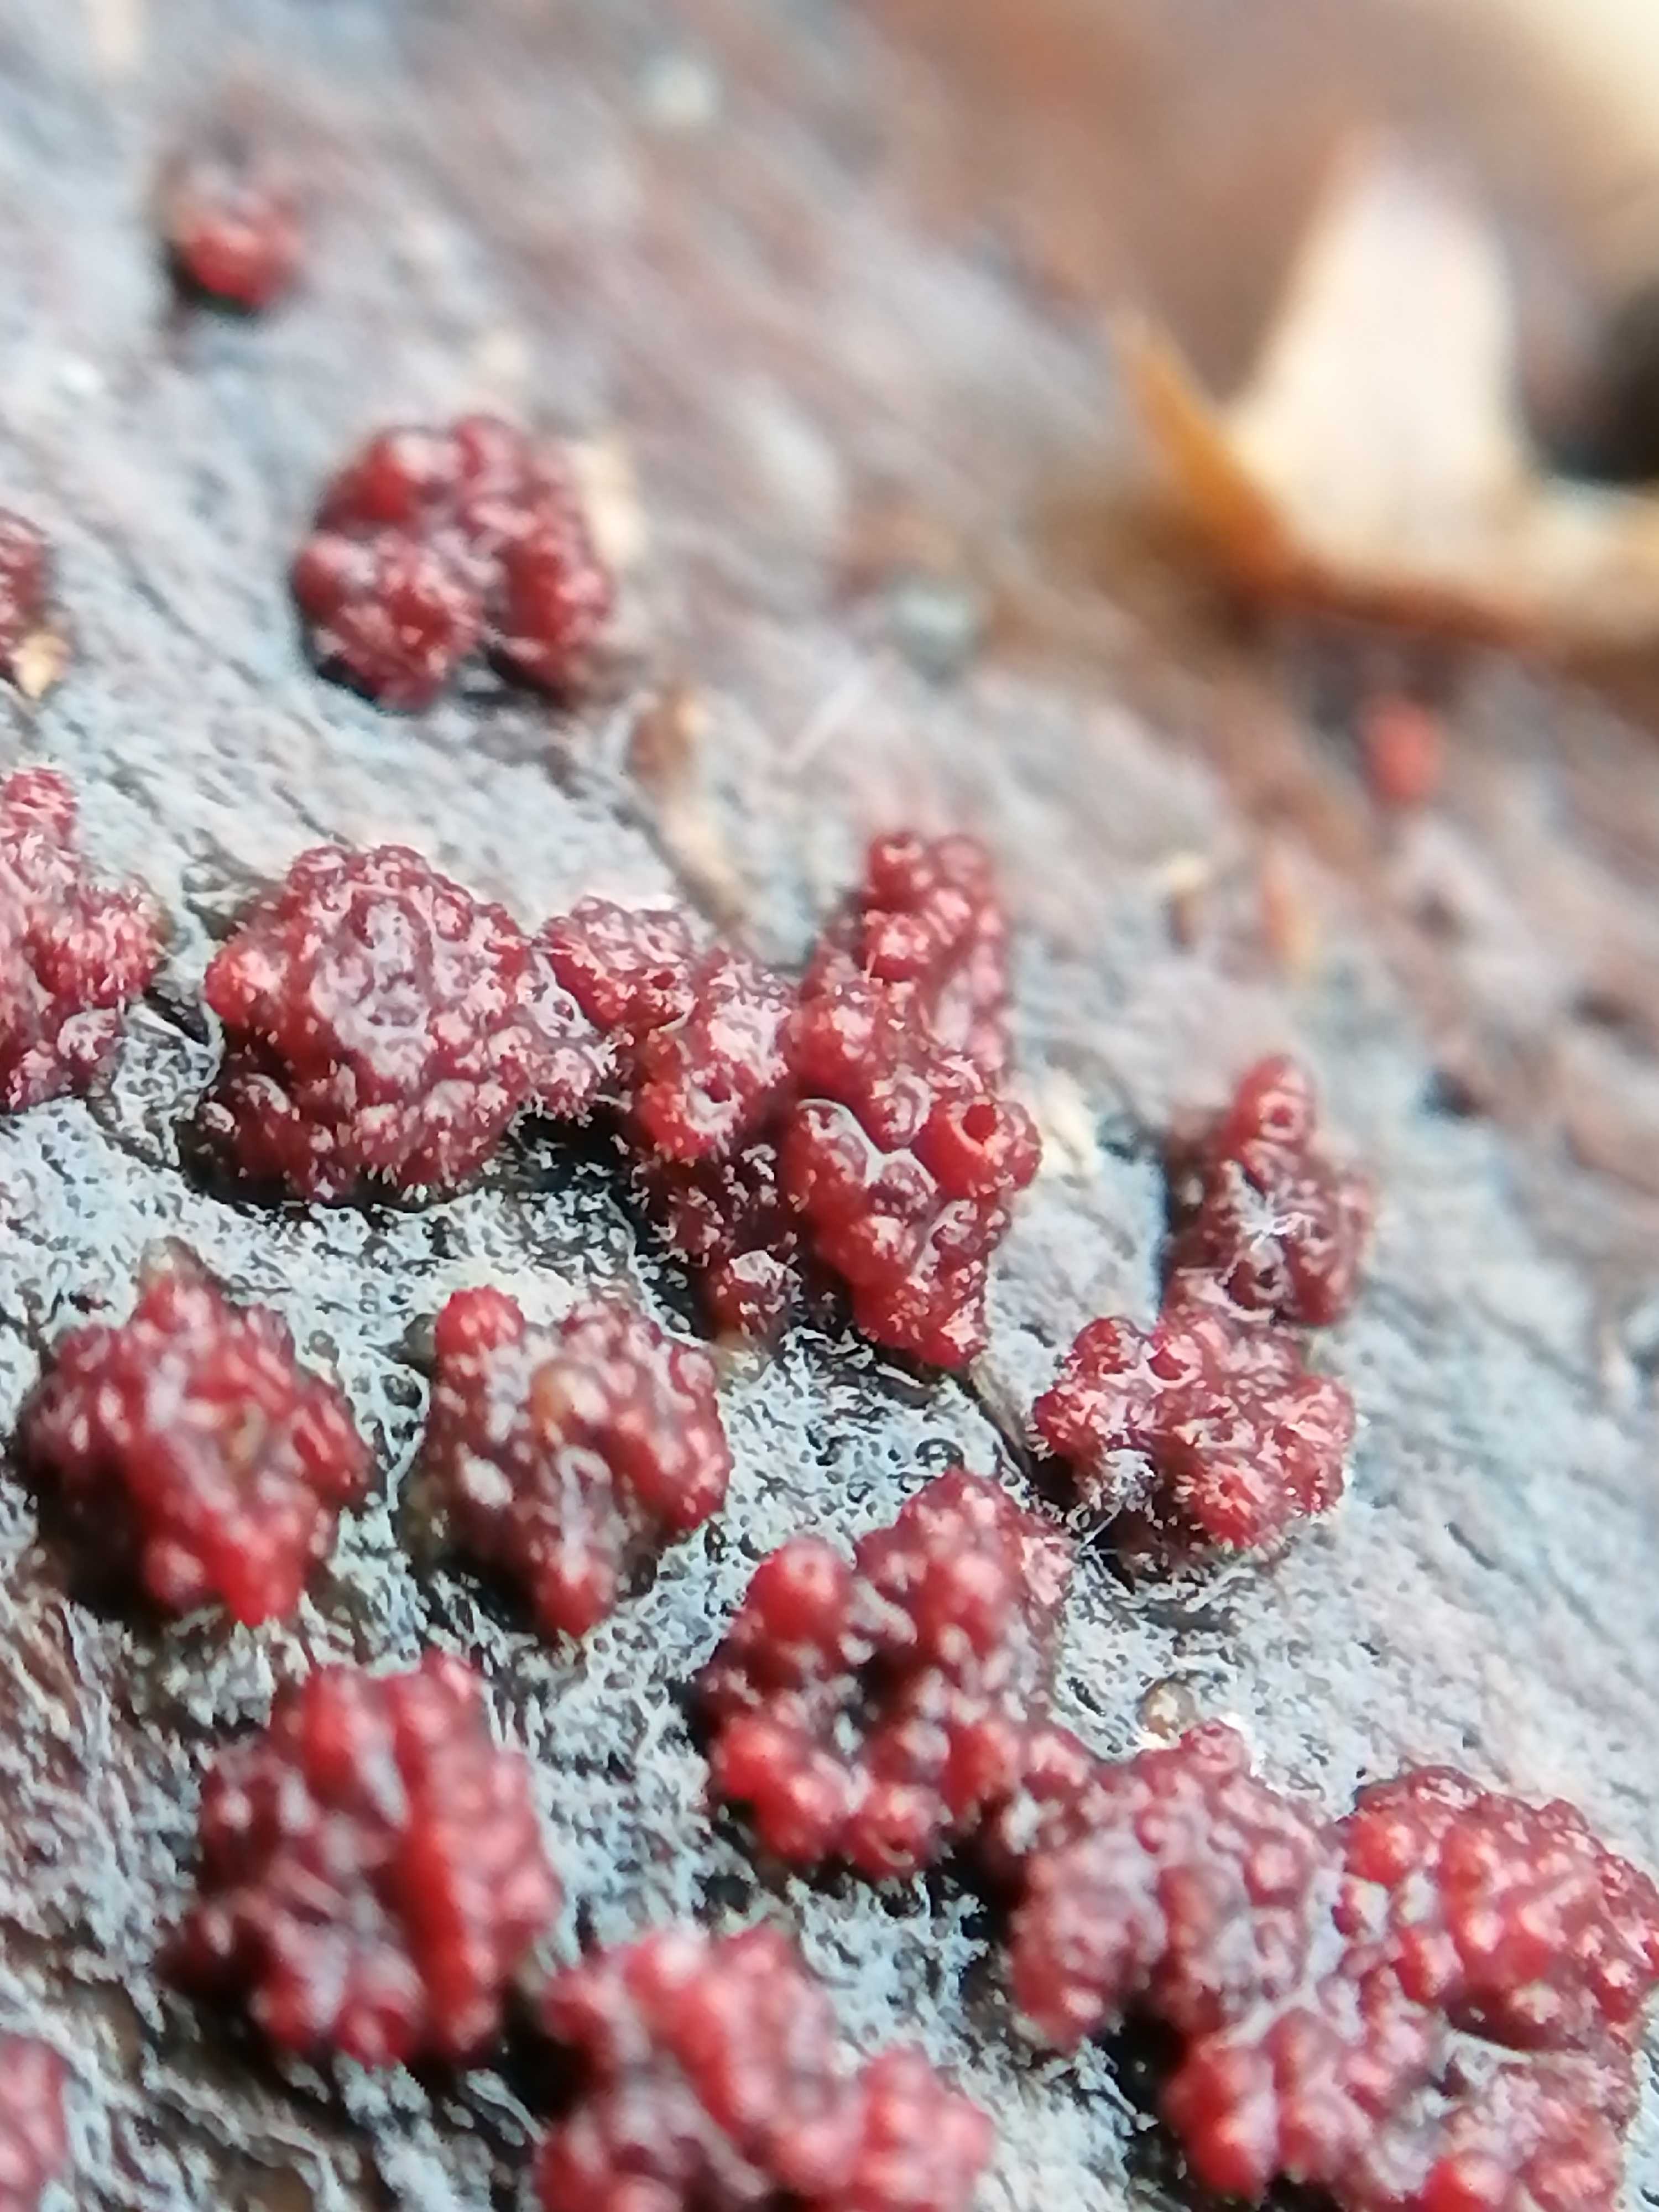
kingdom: Fungi
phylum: Ascomycota
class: Sordariomycetes
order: Hypocreales
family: Nectriaceae
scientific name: Nectriaceae
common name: cinnobersvampfamilien
